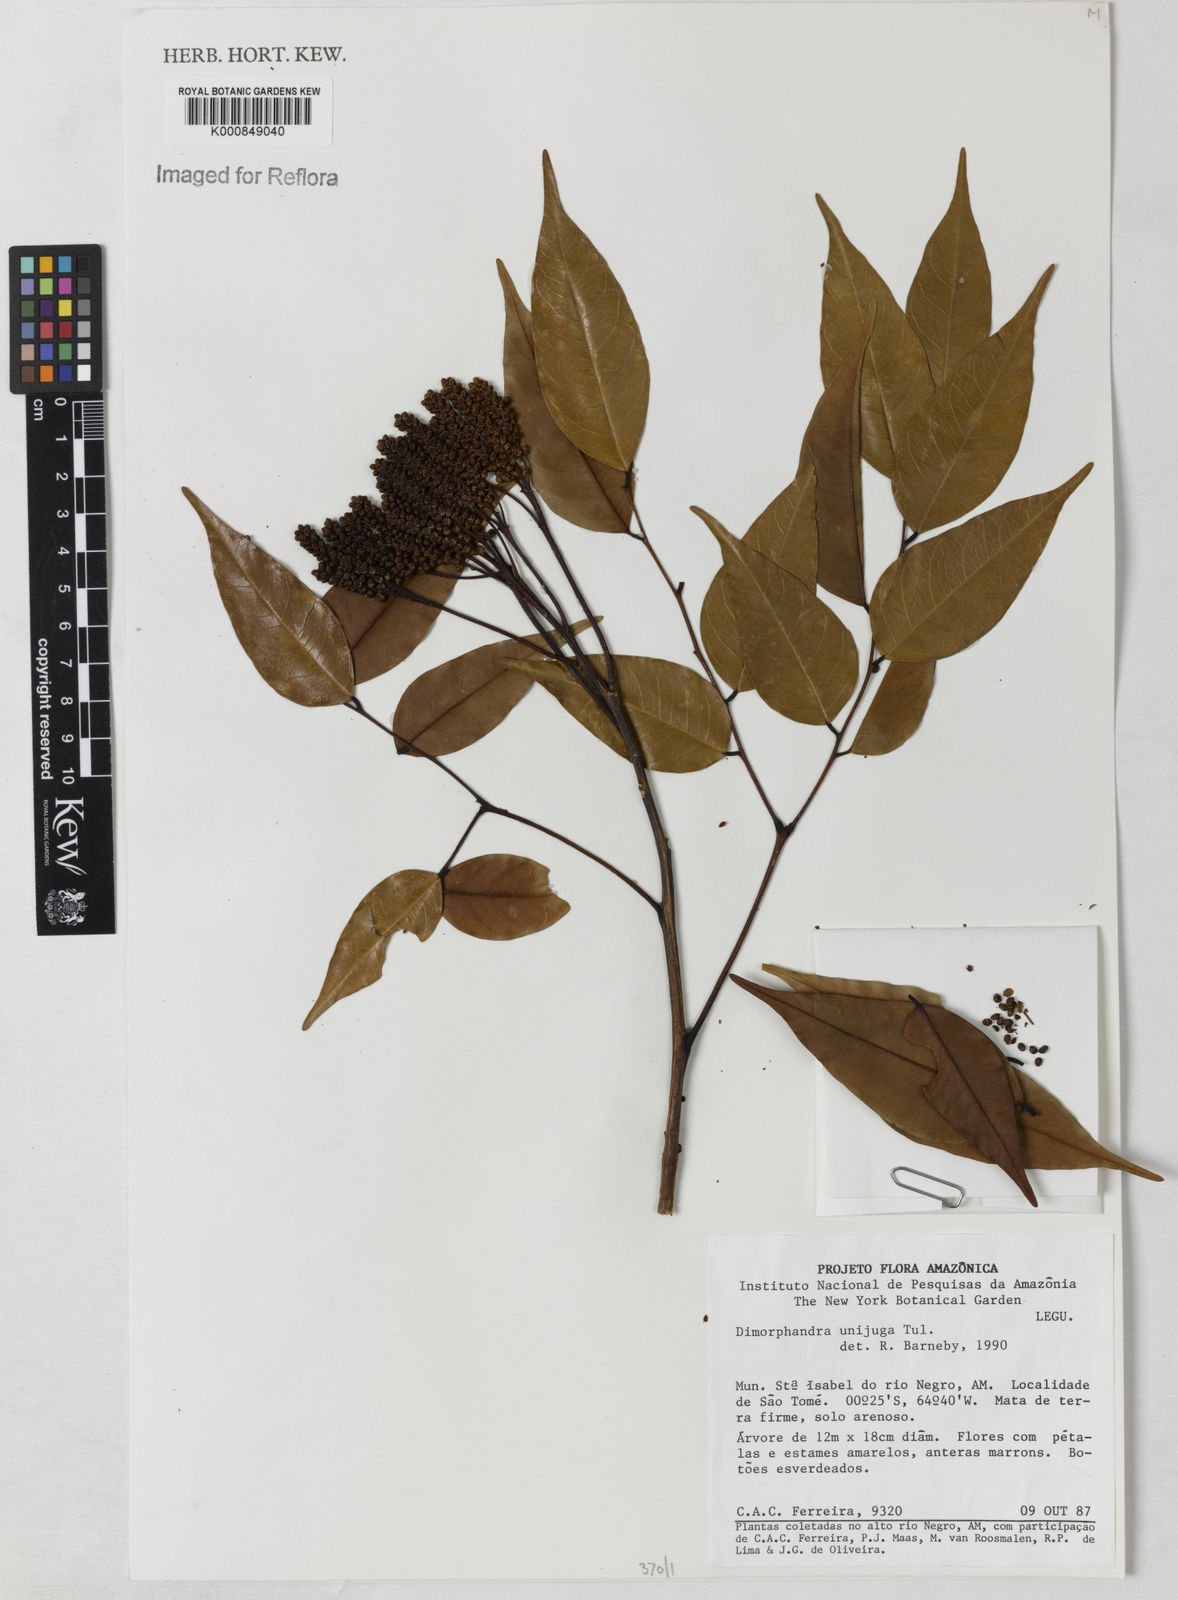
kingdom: Plantae
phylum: Tracheophyta
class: Magnoliopsida
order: Fabales
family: Fabaceae
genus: Dimorphandra
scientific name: Dimorphandra unijuga
